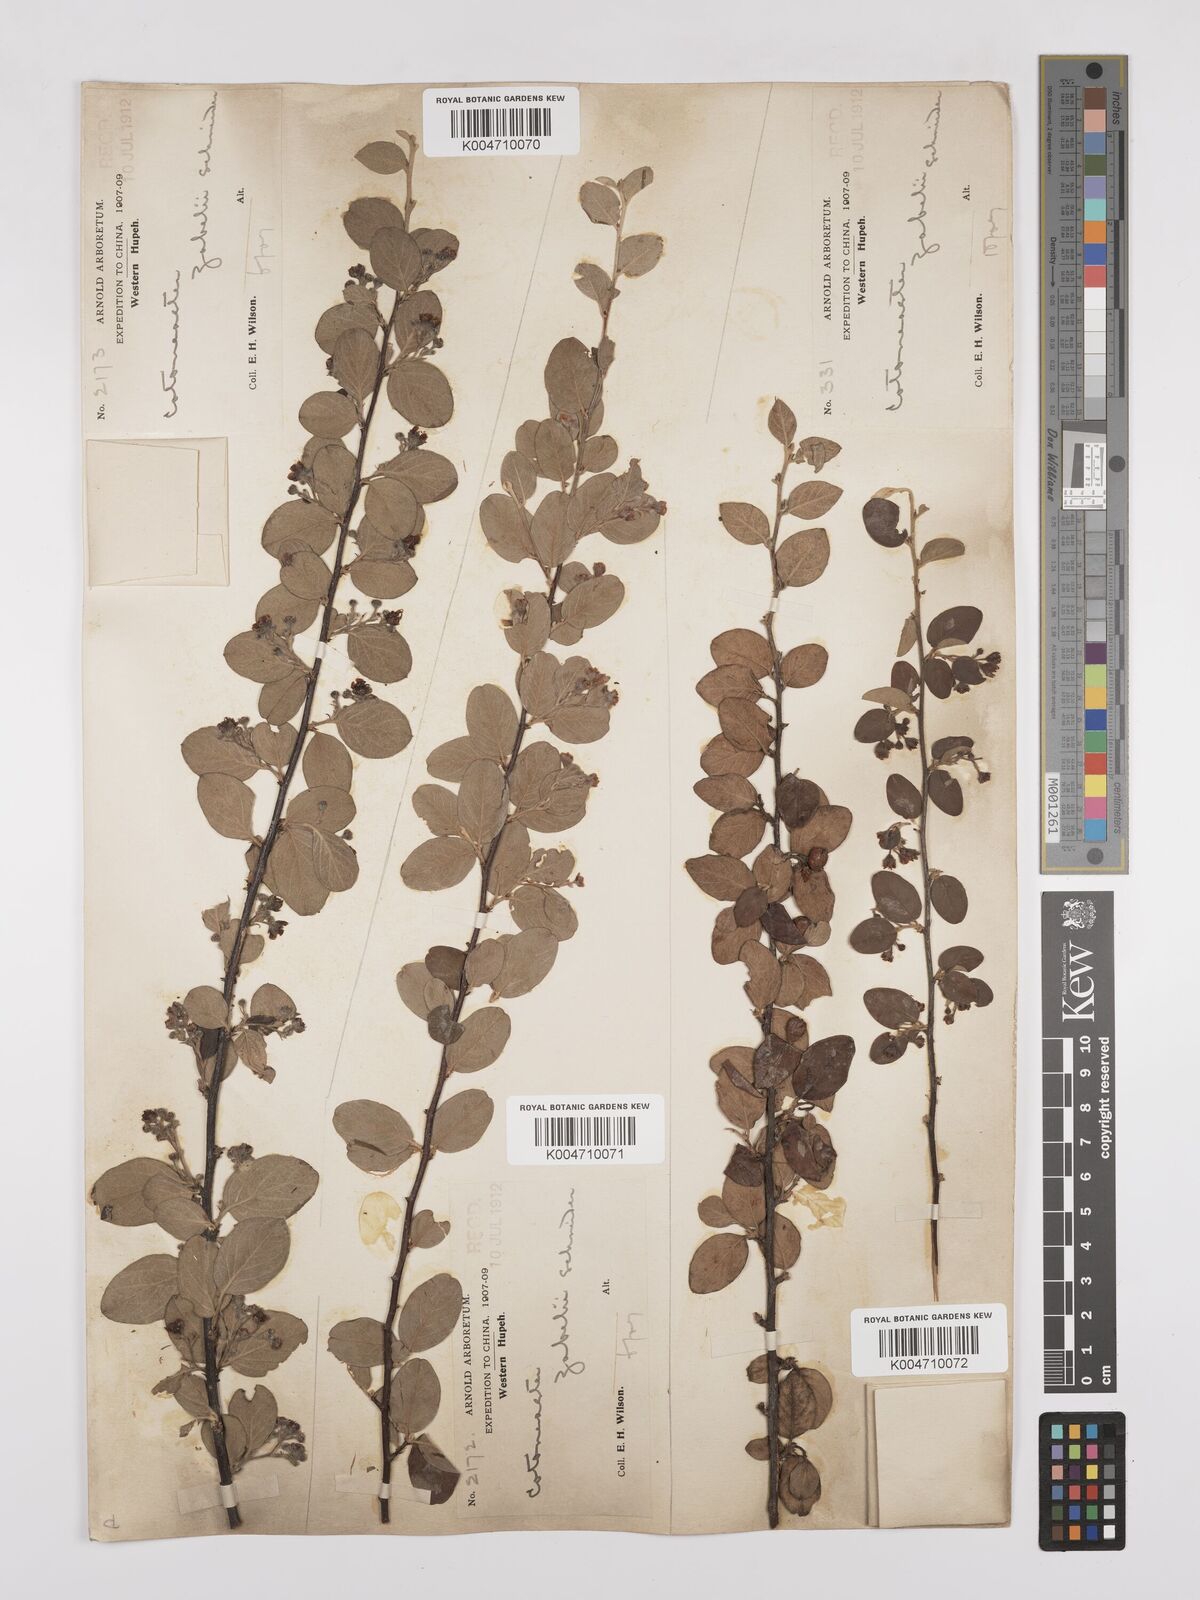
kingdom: Plantae
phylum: Tracheophyta
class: Magnoliopsida
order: Rosales
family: Rosaceae
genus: Cotoneaster
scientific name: Cotoneaster zabelii
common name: Cherryred cotoneaster
